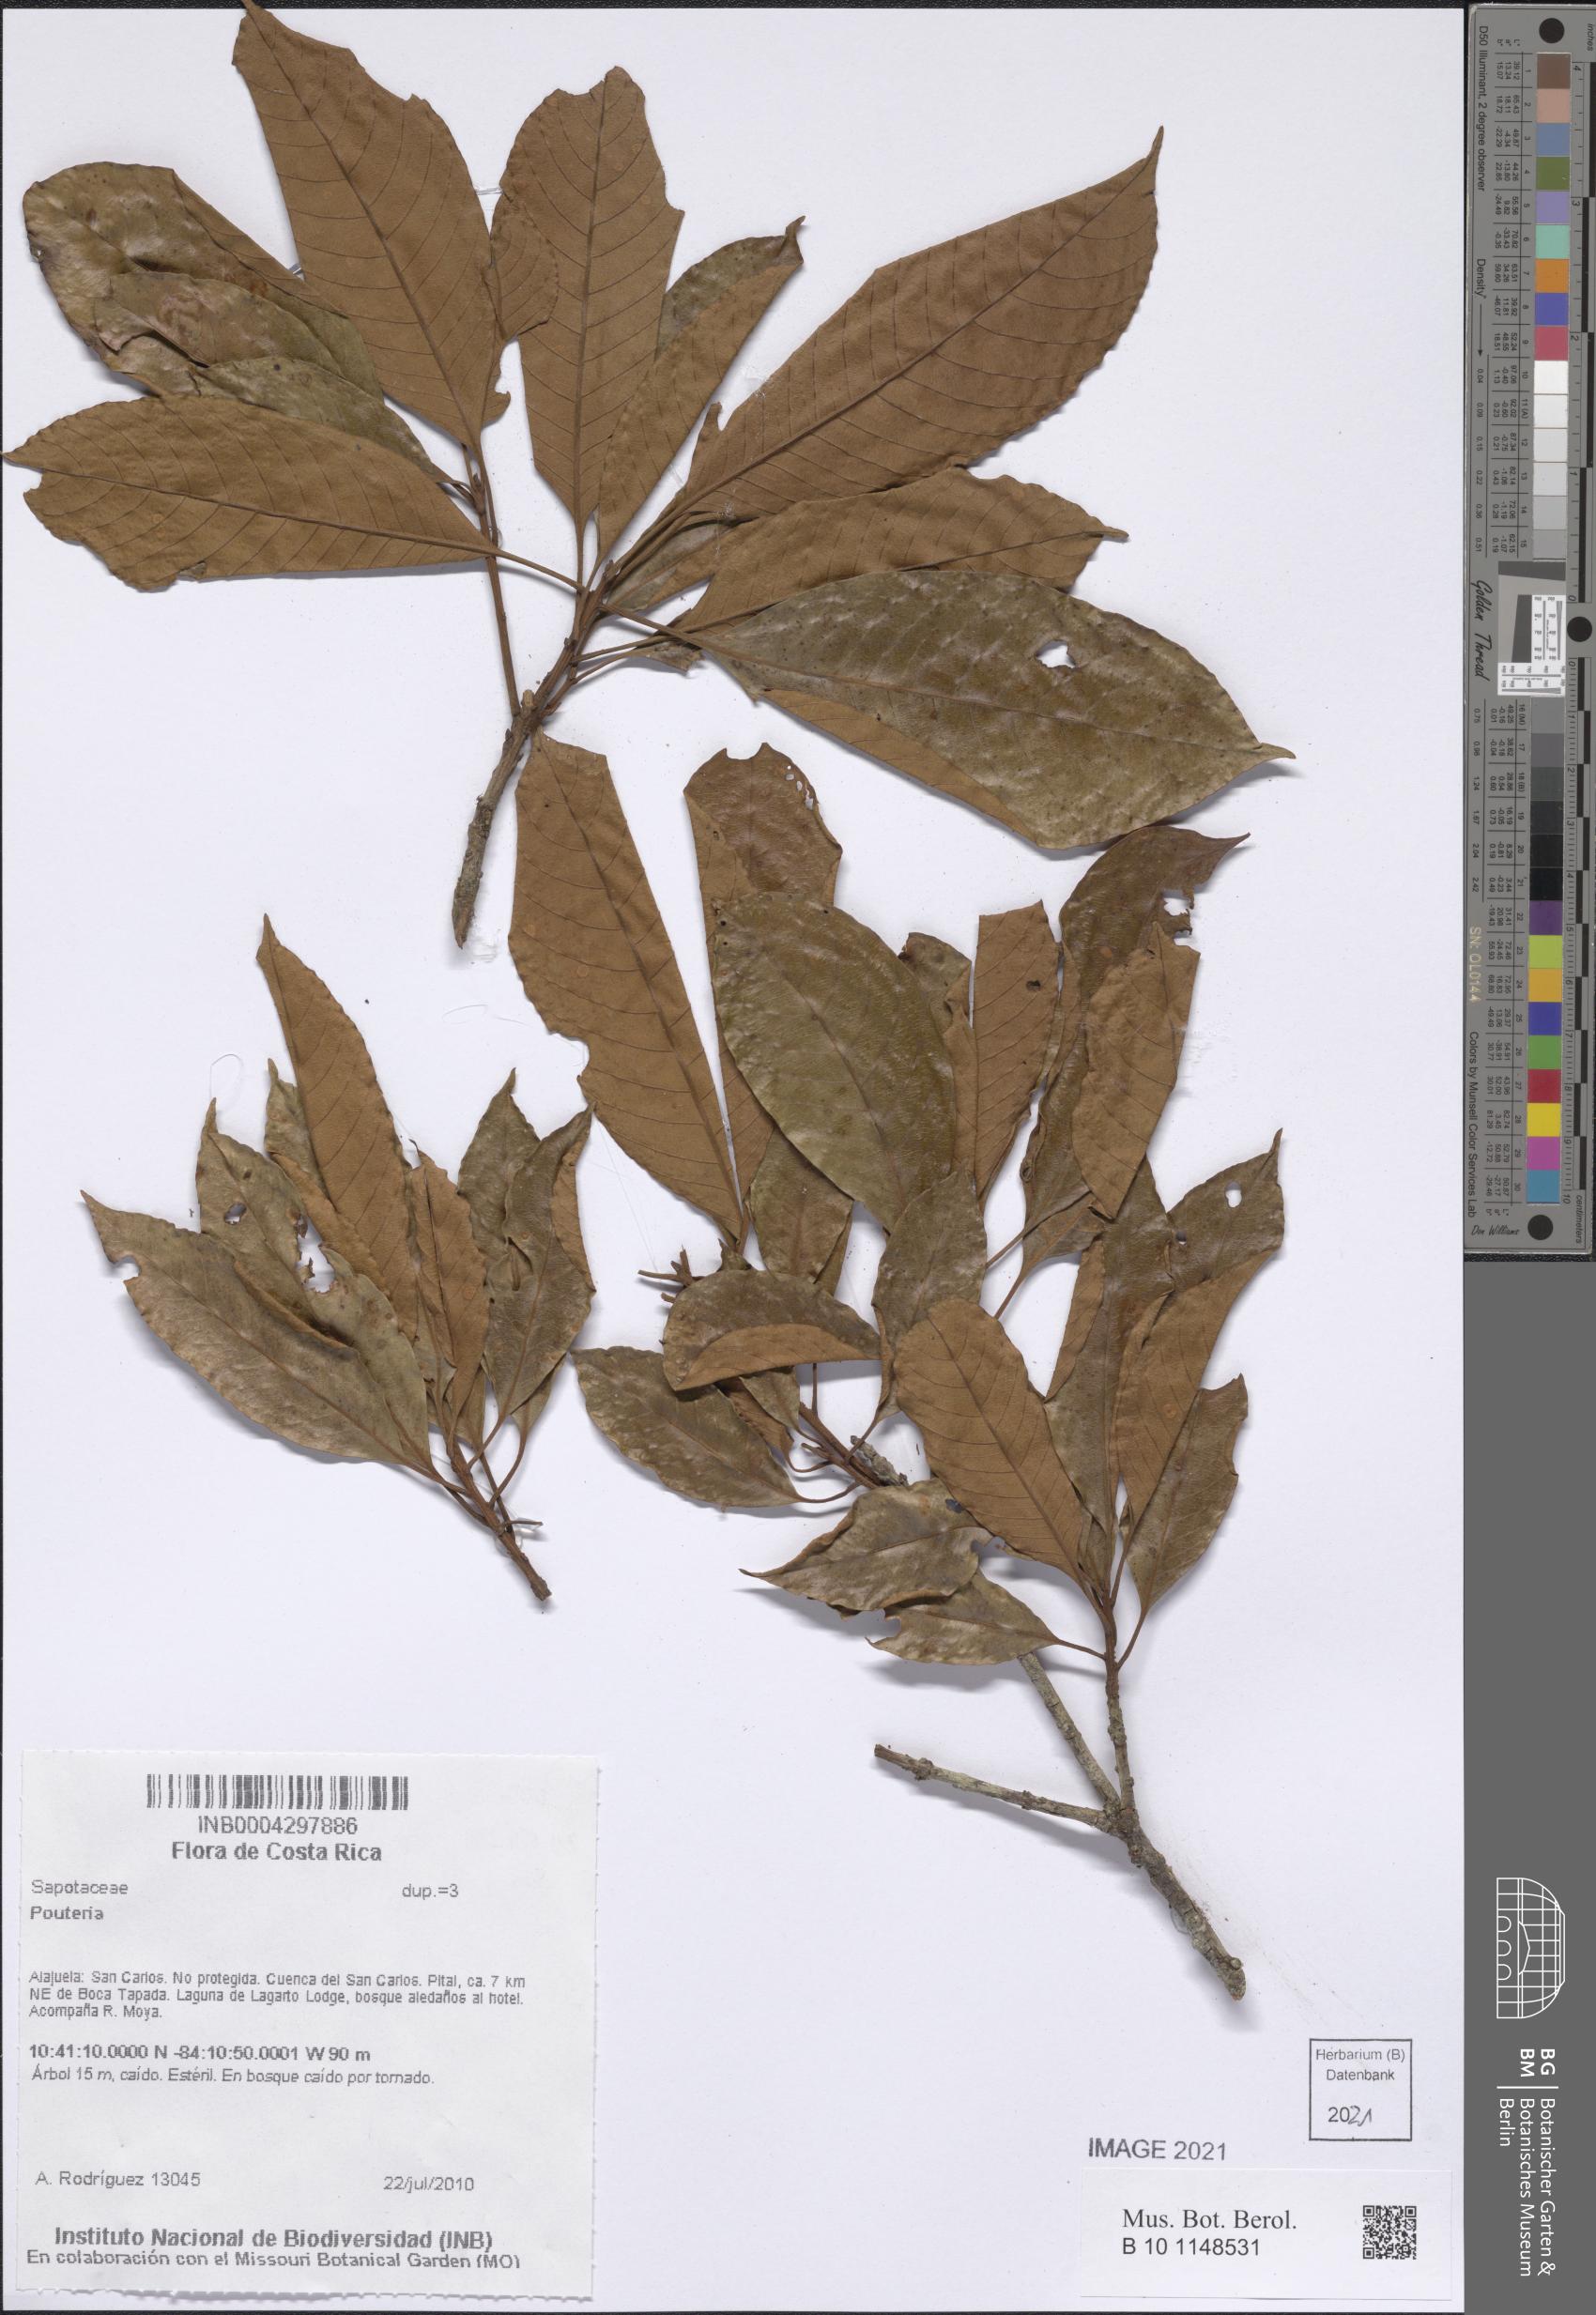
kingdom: Plantae
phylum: Tracheophyta
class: Magnoliopsida
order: Ericales
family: Sapotaceae
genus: Pouteria
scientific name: Pouteria
